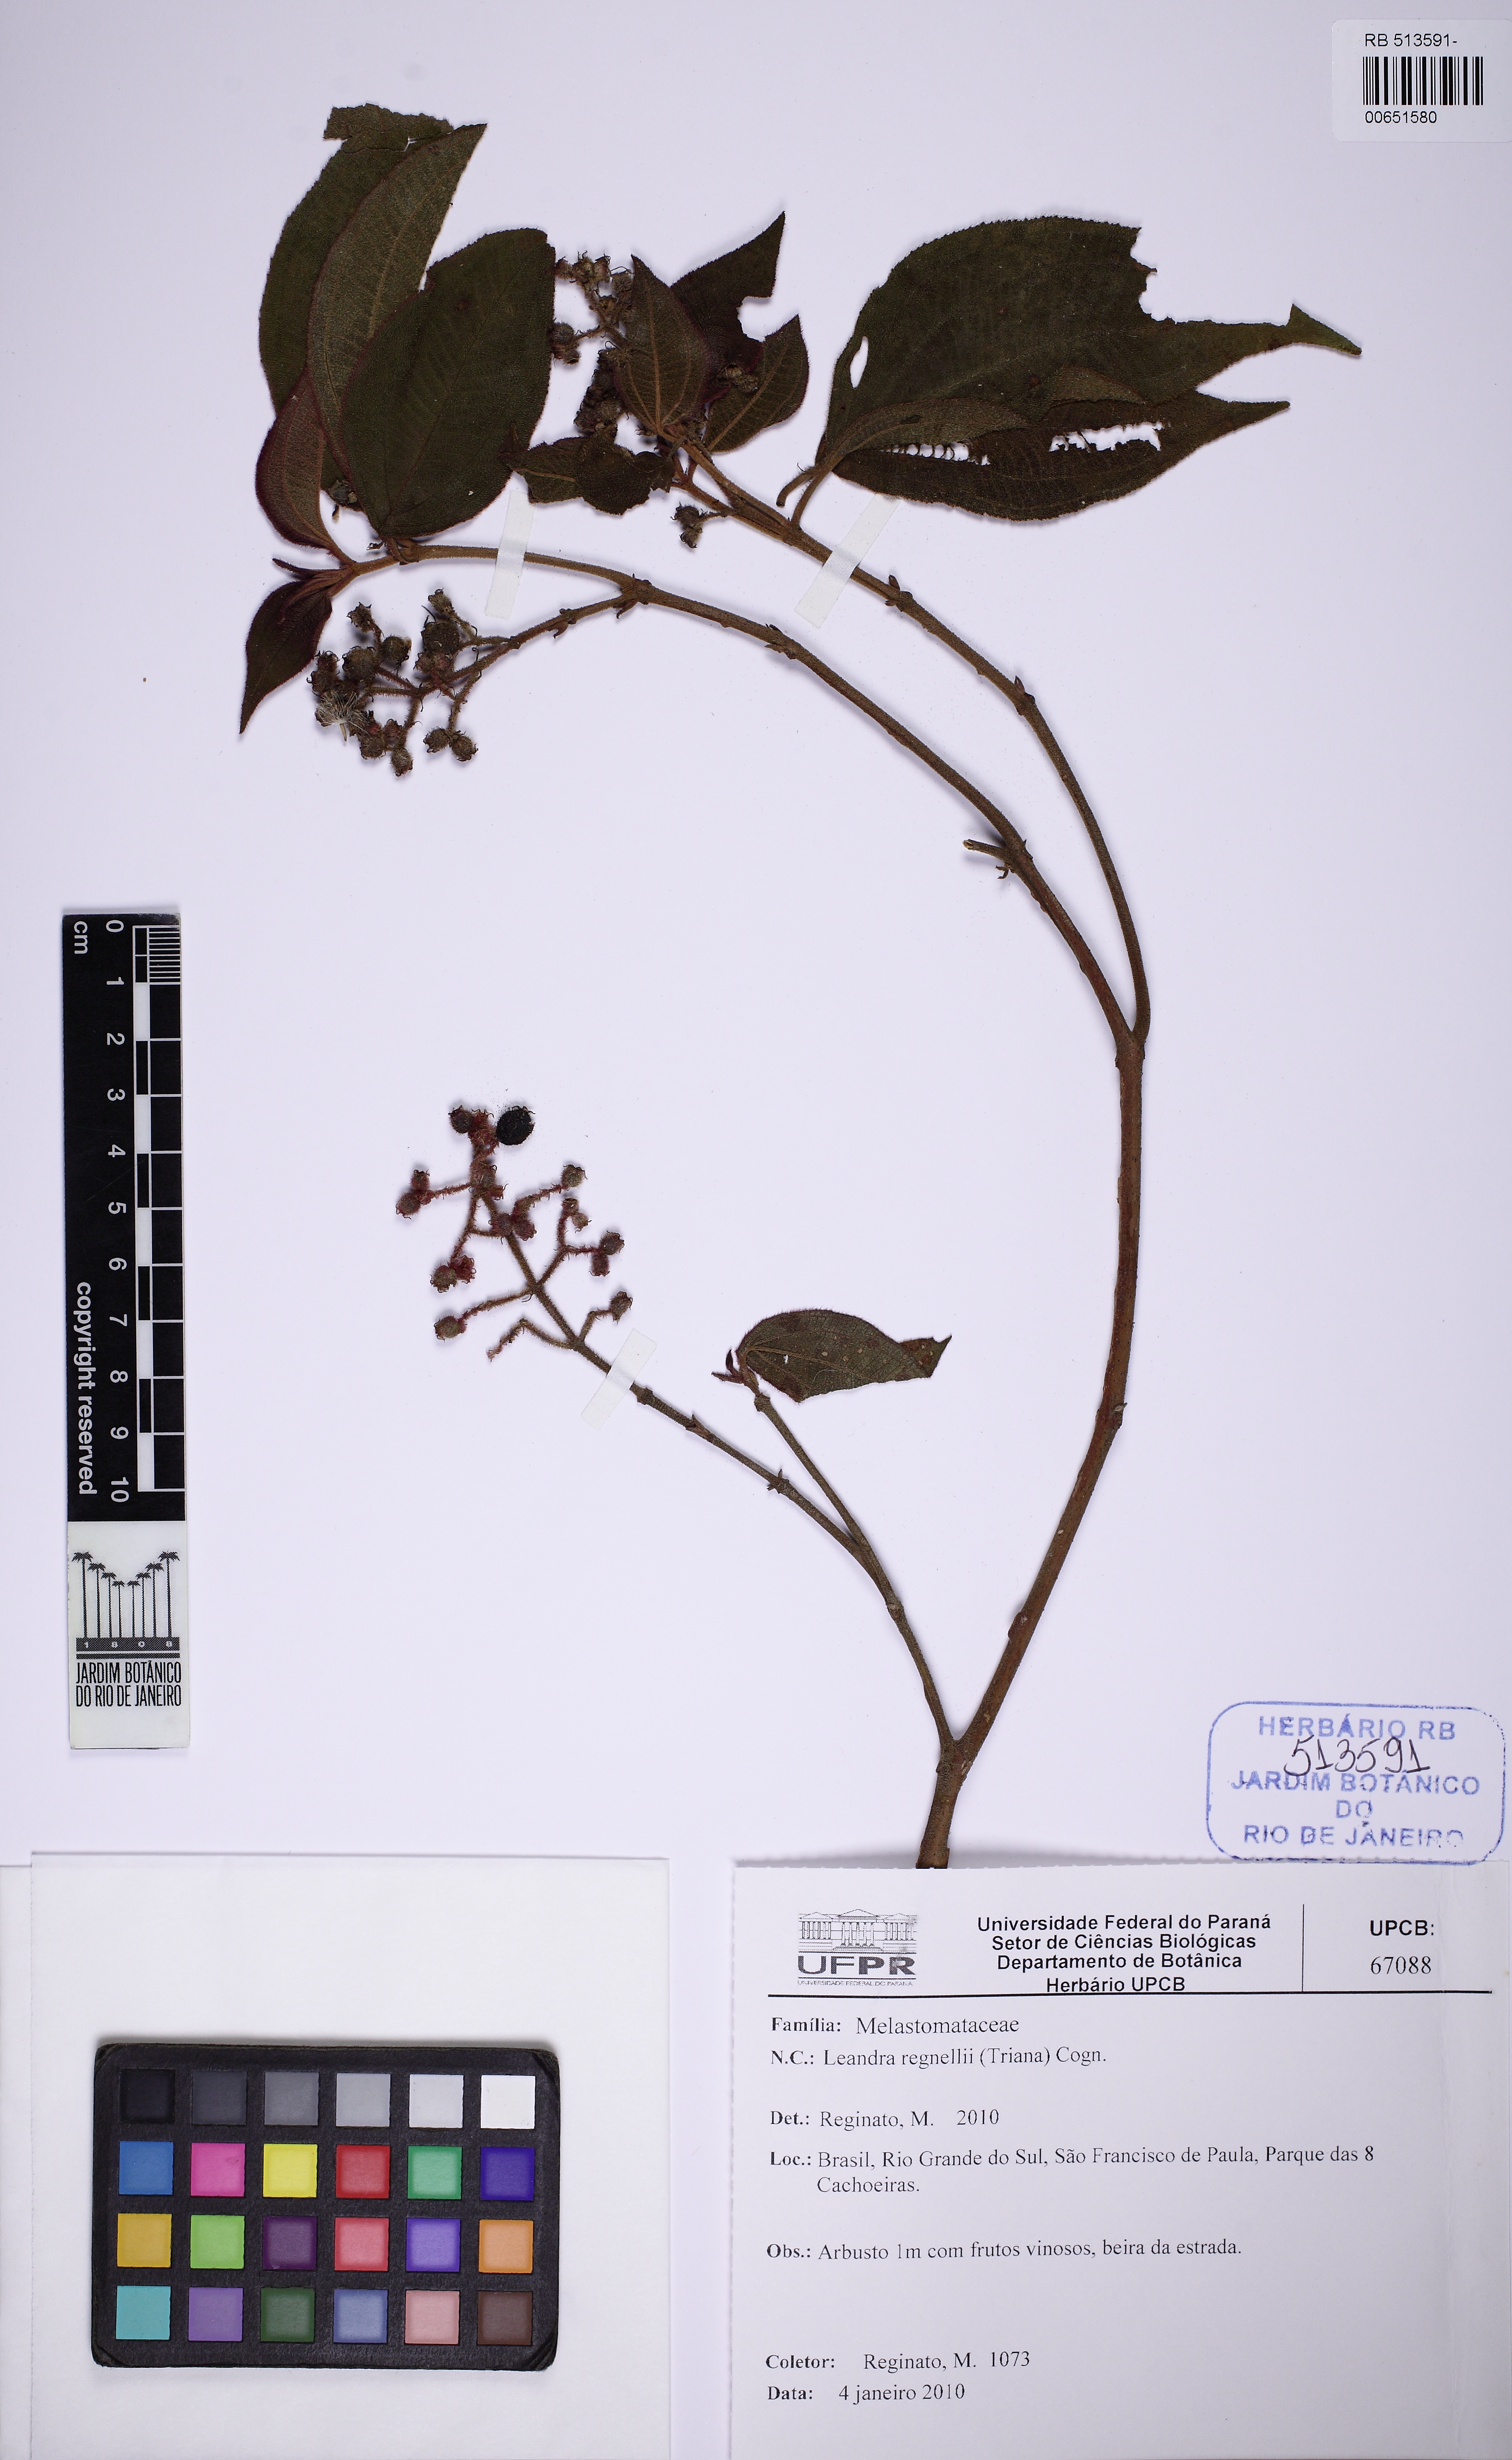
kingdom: Plantae
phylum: Tracheophyta
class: Magnoliopsida
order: Myrtales
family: Melastomataceae
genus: Miconia
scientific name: Miconia alterninervia
